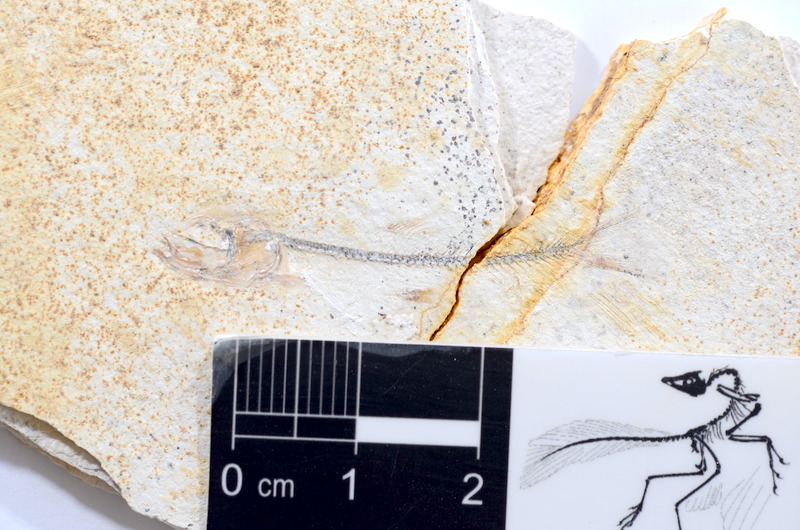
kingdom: Animalia
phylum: Chordata
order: Salmoniformes
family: Orthogonikleithridae
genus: Orthogonikleithrus
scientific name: Orthogonikleithrus hoelli
